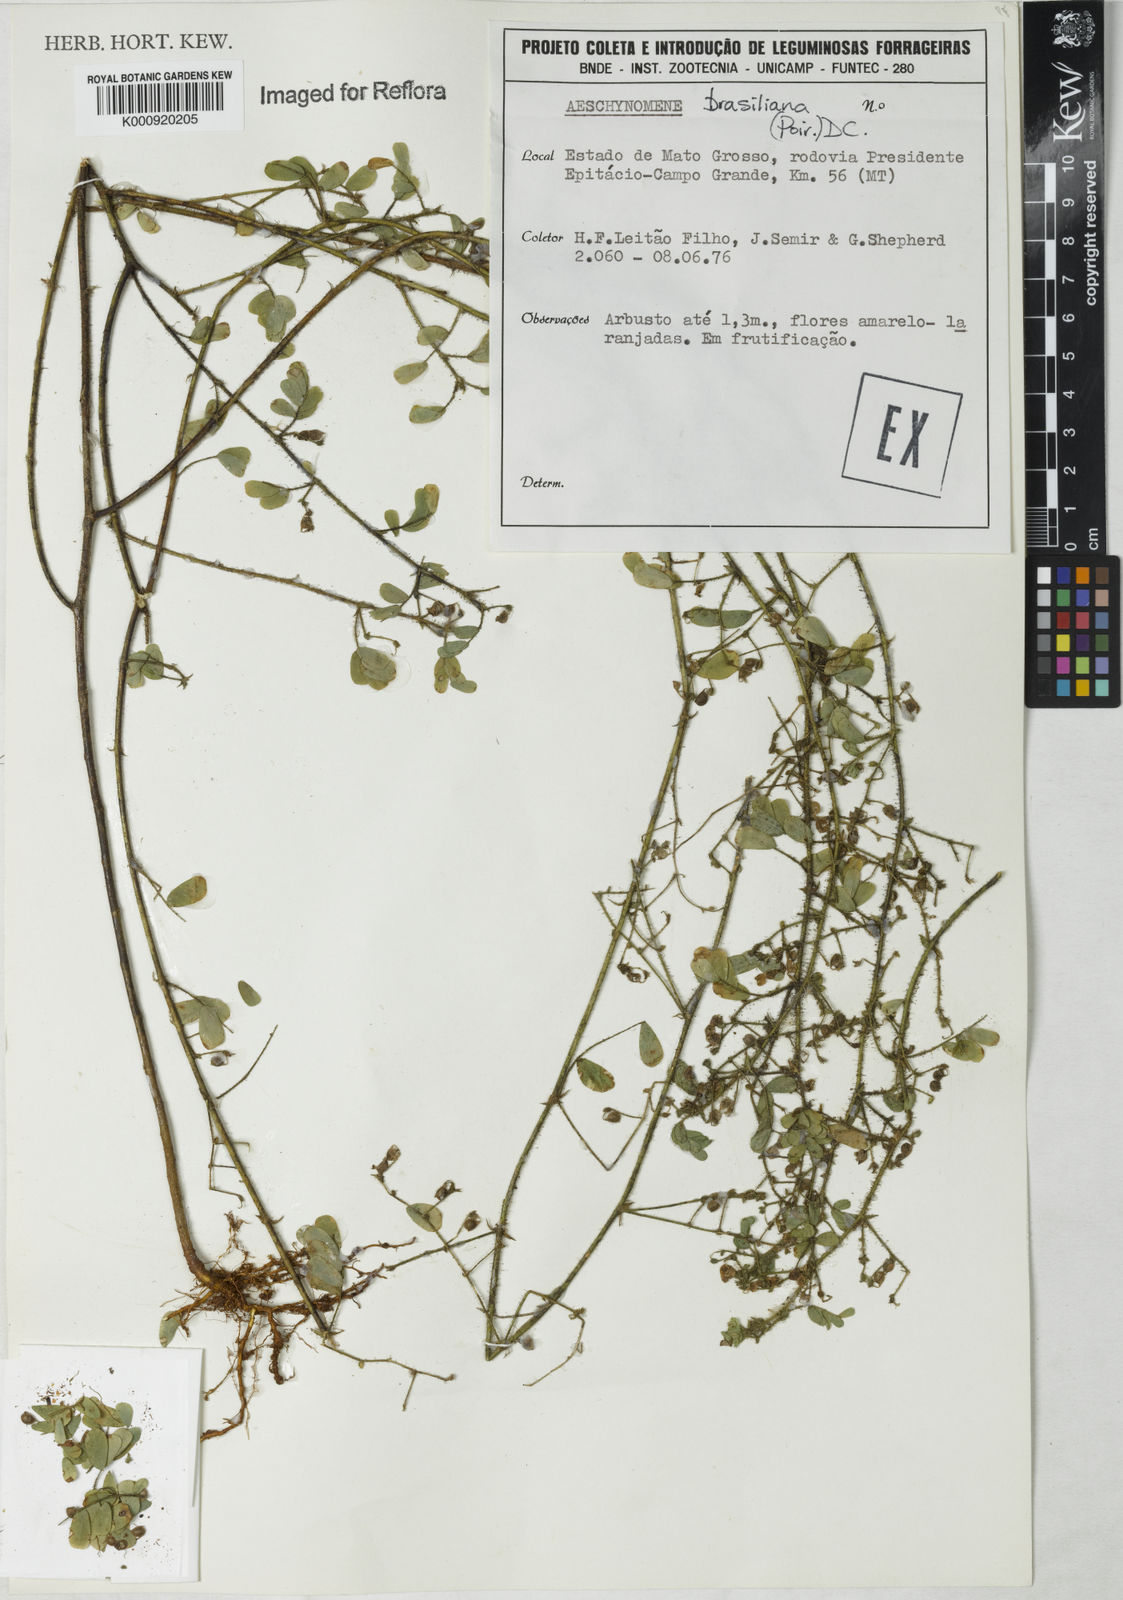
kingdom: Plantae
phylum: Tracheophyta
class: Magnoliopsida
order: Fabales
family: Fabaceae
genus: Ctenodon
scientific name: Ctenodon brasilianus
